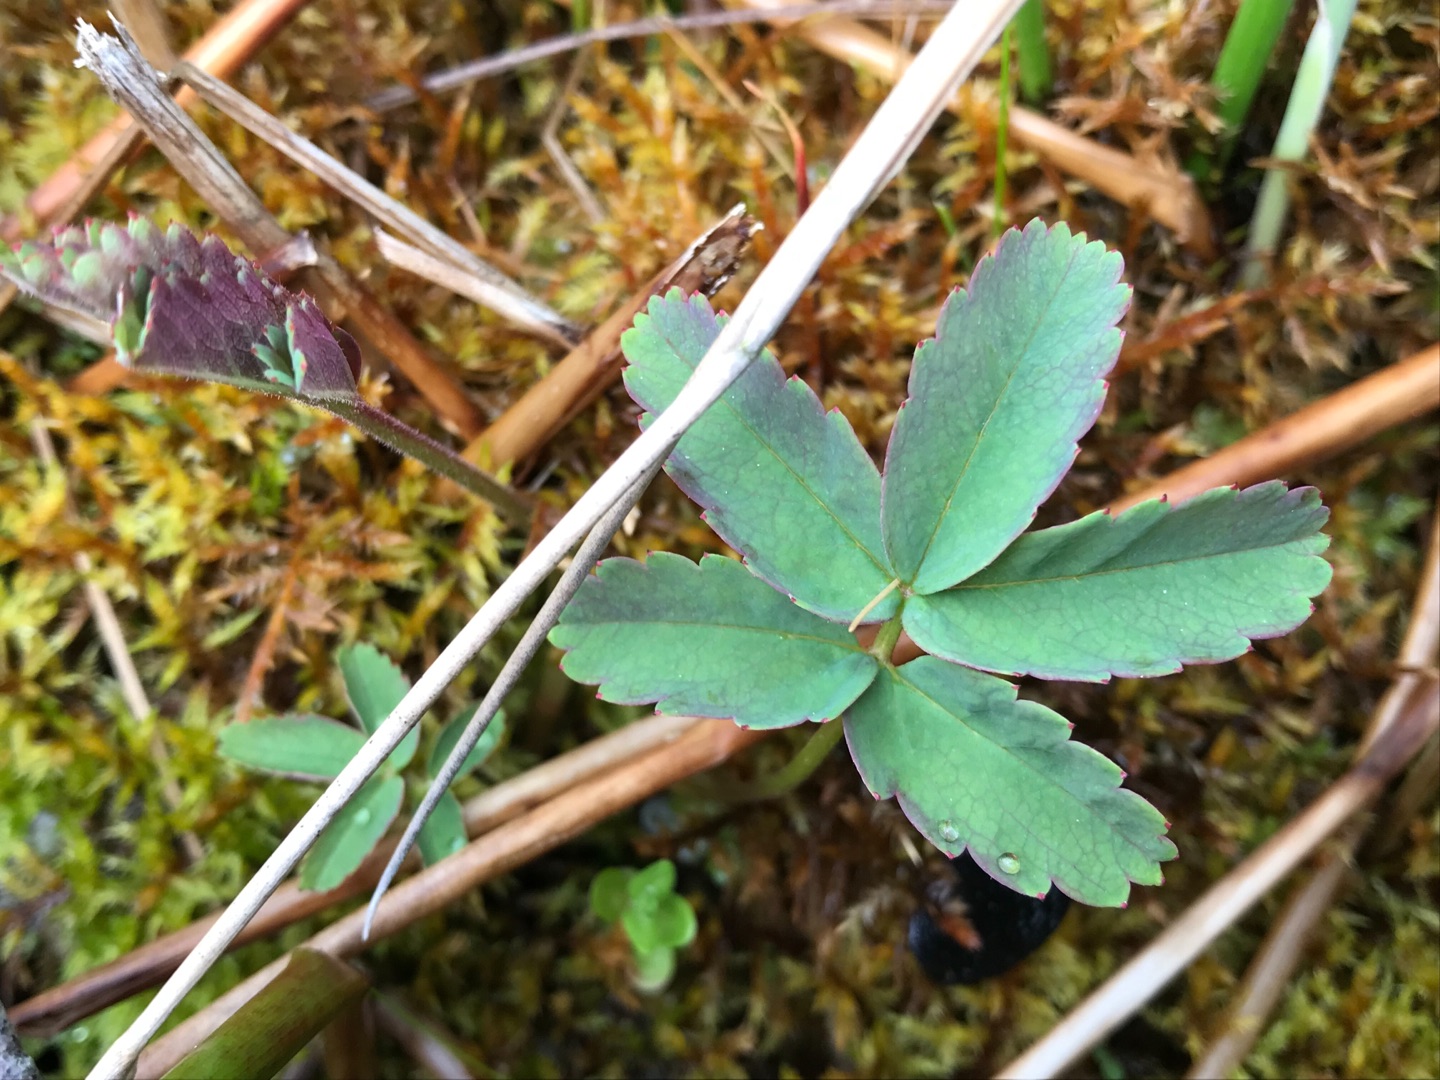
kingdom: Plantae
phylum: Tracheophyta
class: Magnoliopsida
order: Rosales
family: Rosaceae
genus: Comarum
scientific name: Comarum palustre
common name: Kragefod
